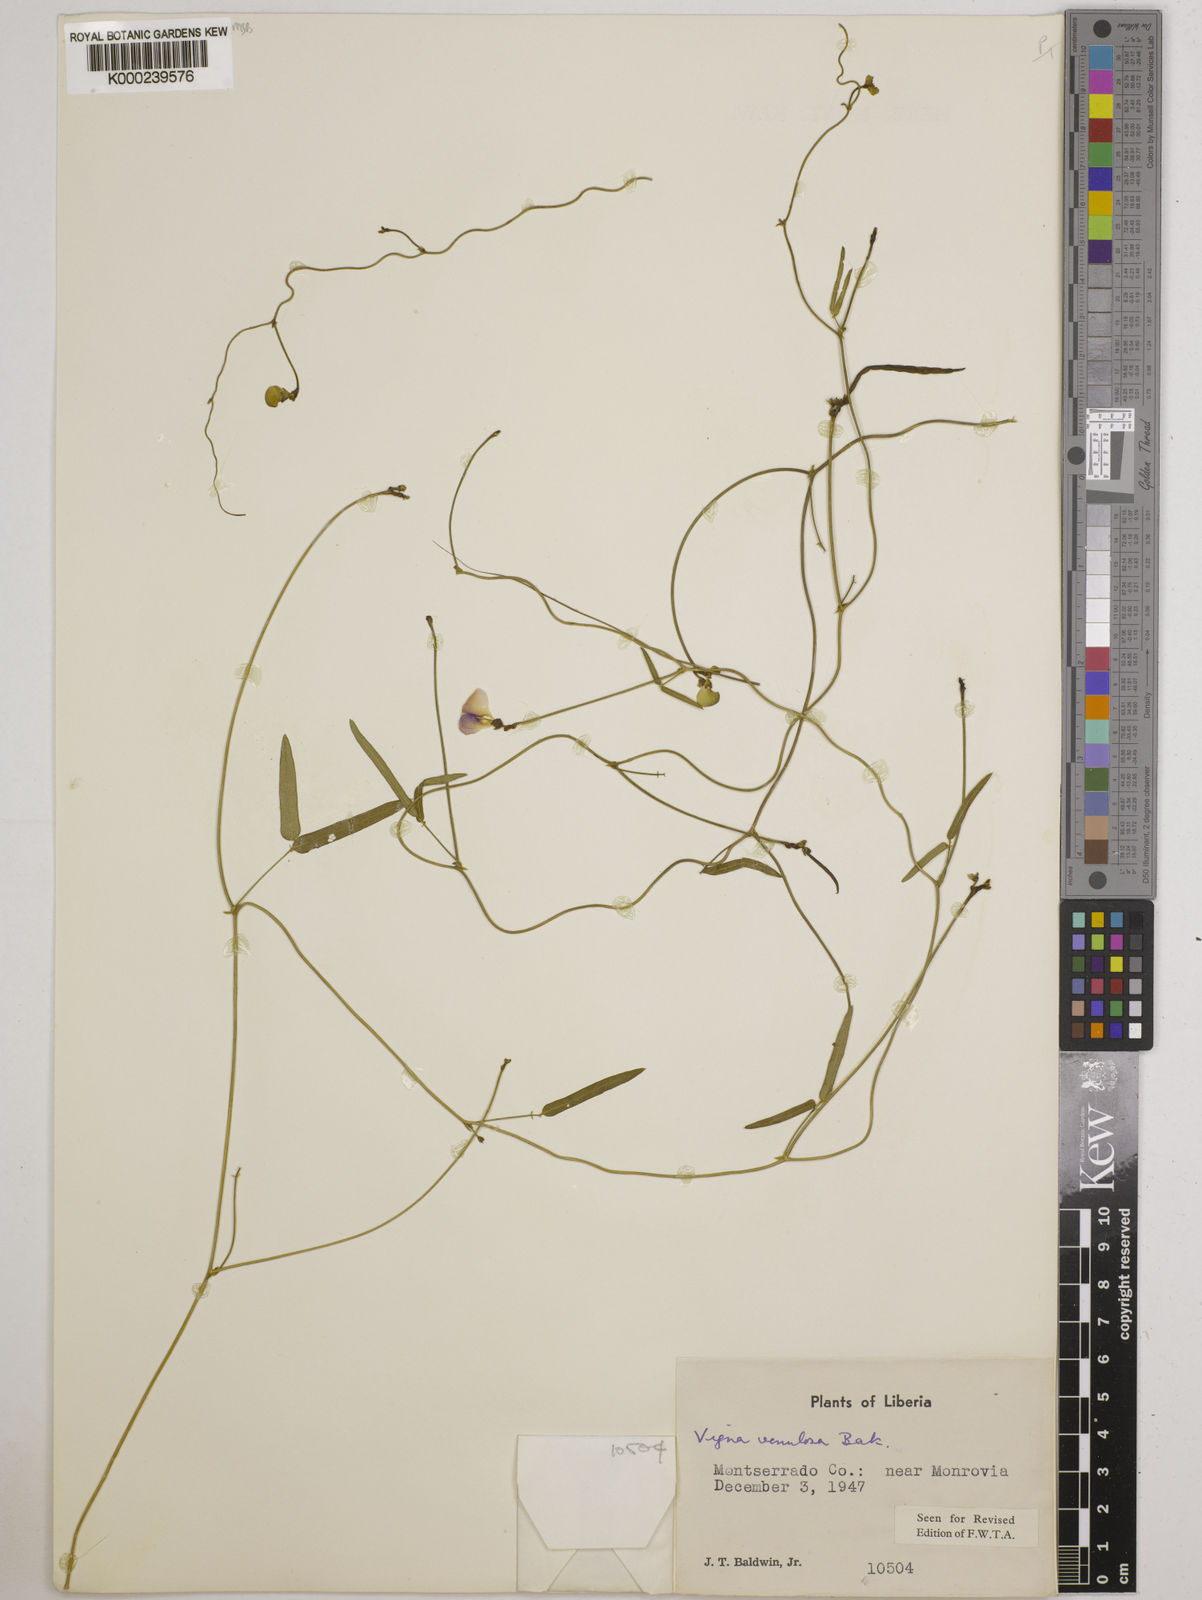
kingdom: Plantae
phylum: Tracheophyta
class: Magnoliopsida
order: Fabales
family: Fabaceae
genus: Vigna
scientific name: Vigna venulosa
